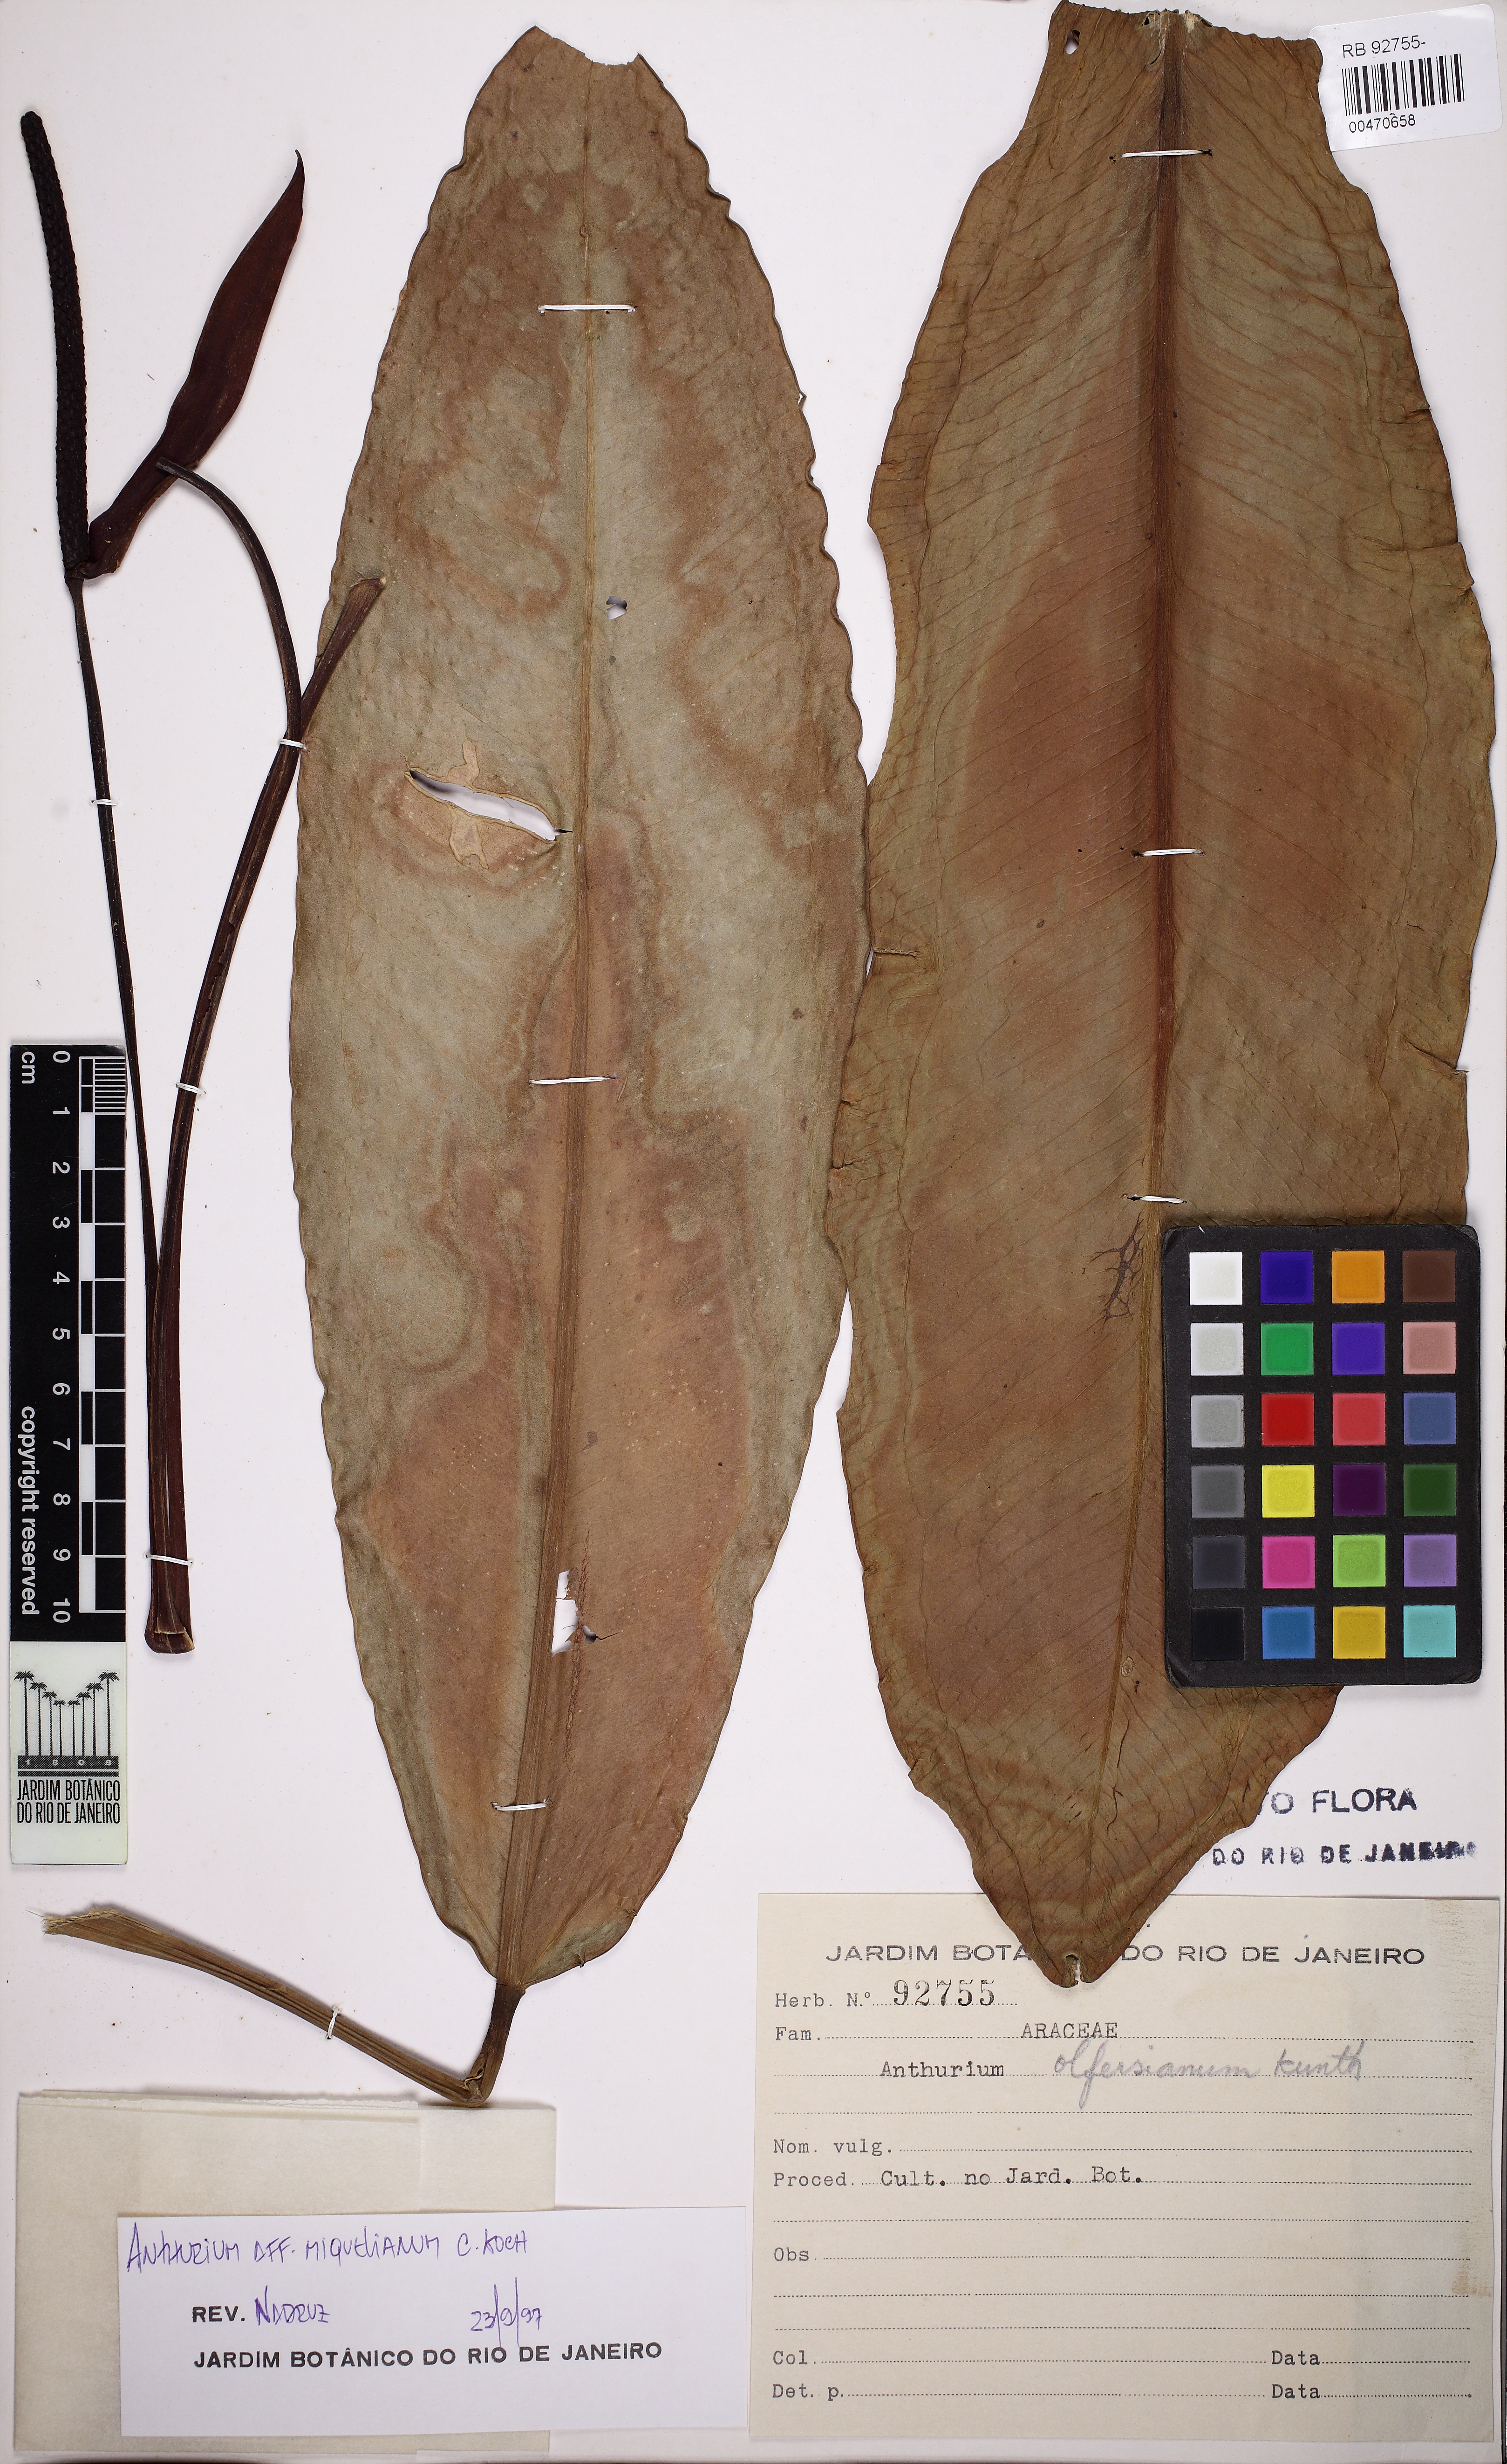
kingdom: Plantae
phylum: Tracheophyta
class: Liliopsida
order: Alismatales
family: Araceae
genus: Anthurium
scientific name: Anthurium parasiticum
